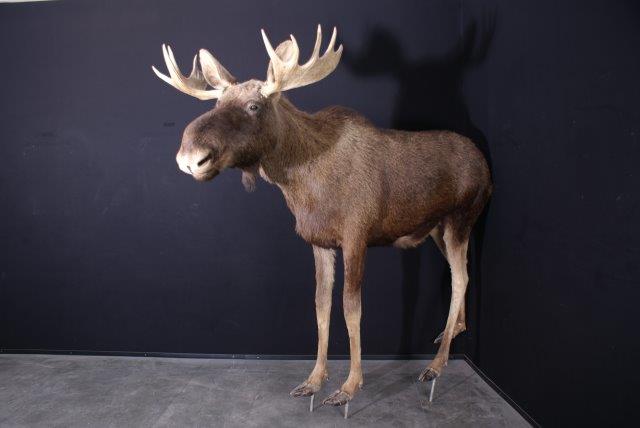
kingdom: Animalia
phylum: Chordata
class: Mammalia
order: Artiodactyla
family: Cervidae
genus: Alces
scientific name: Alces alces
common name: Eurasian Elk
